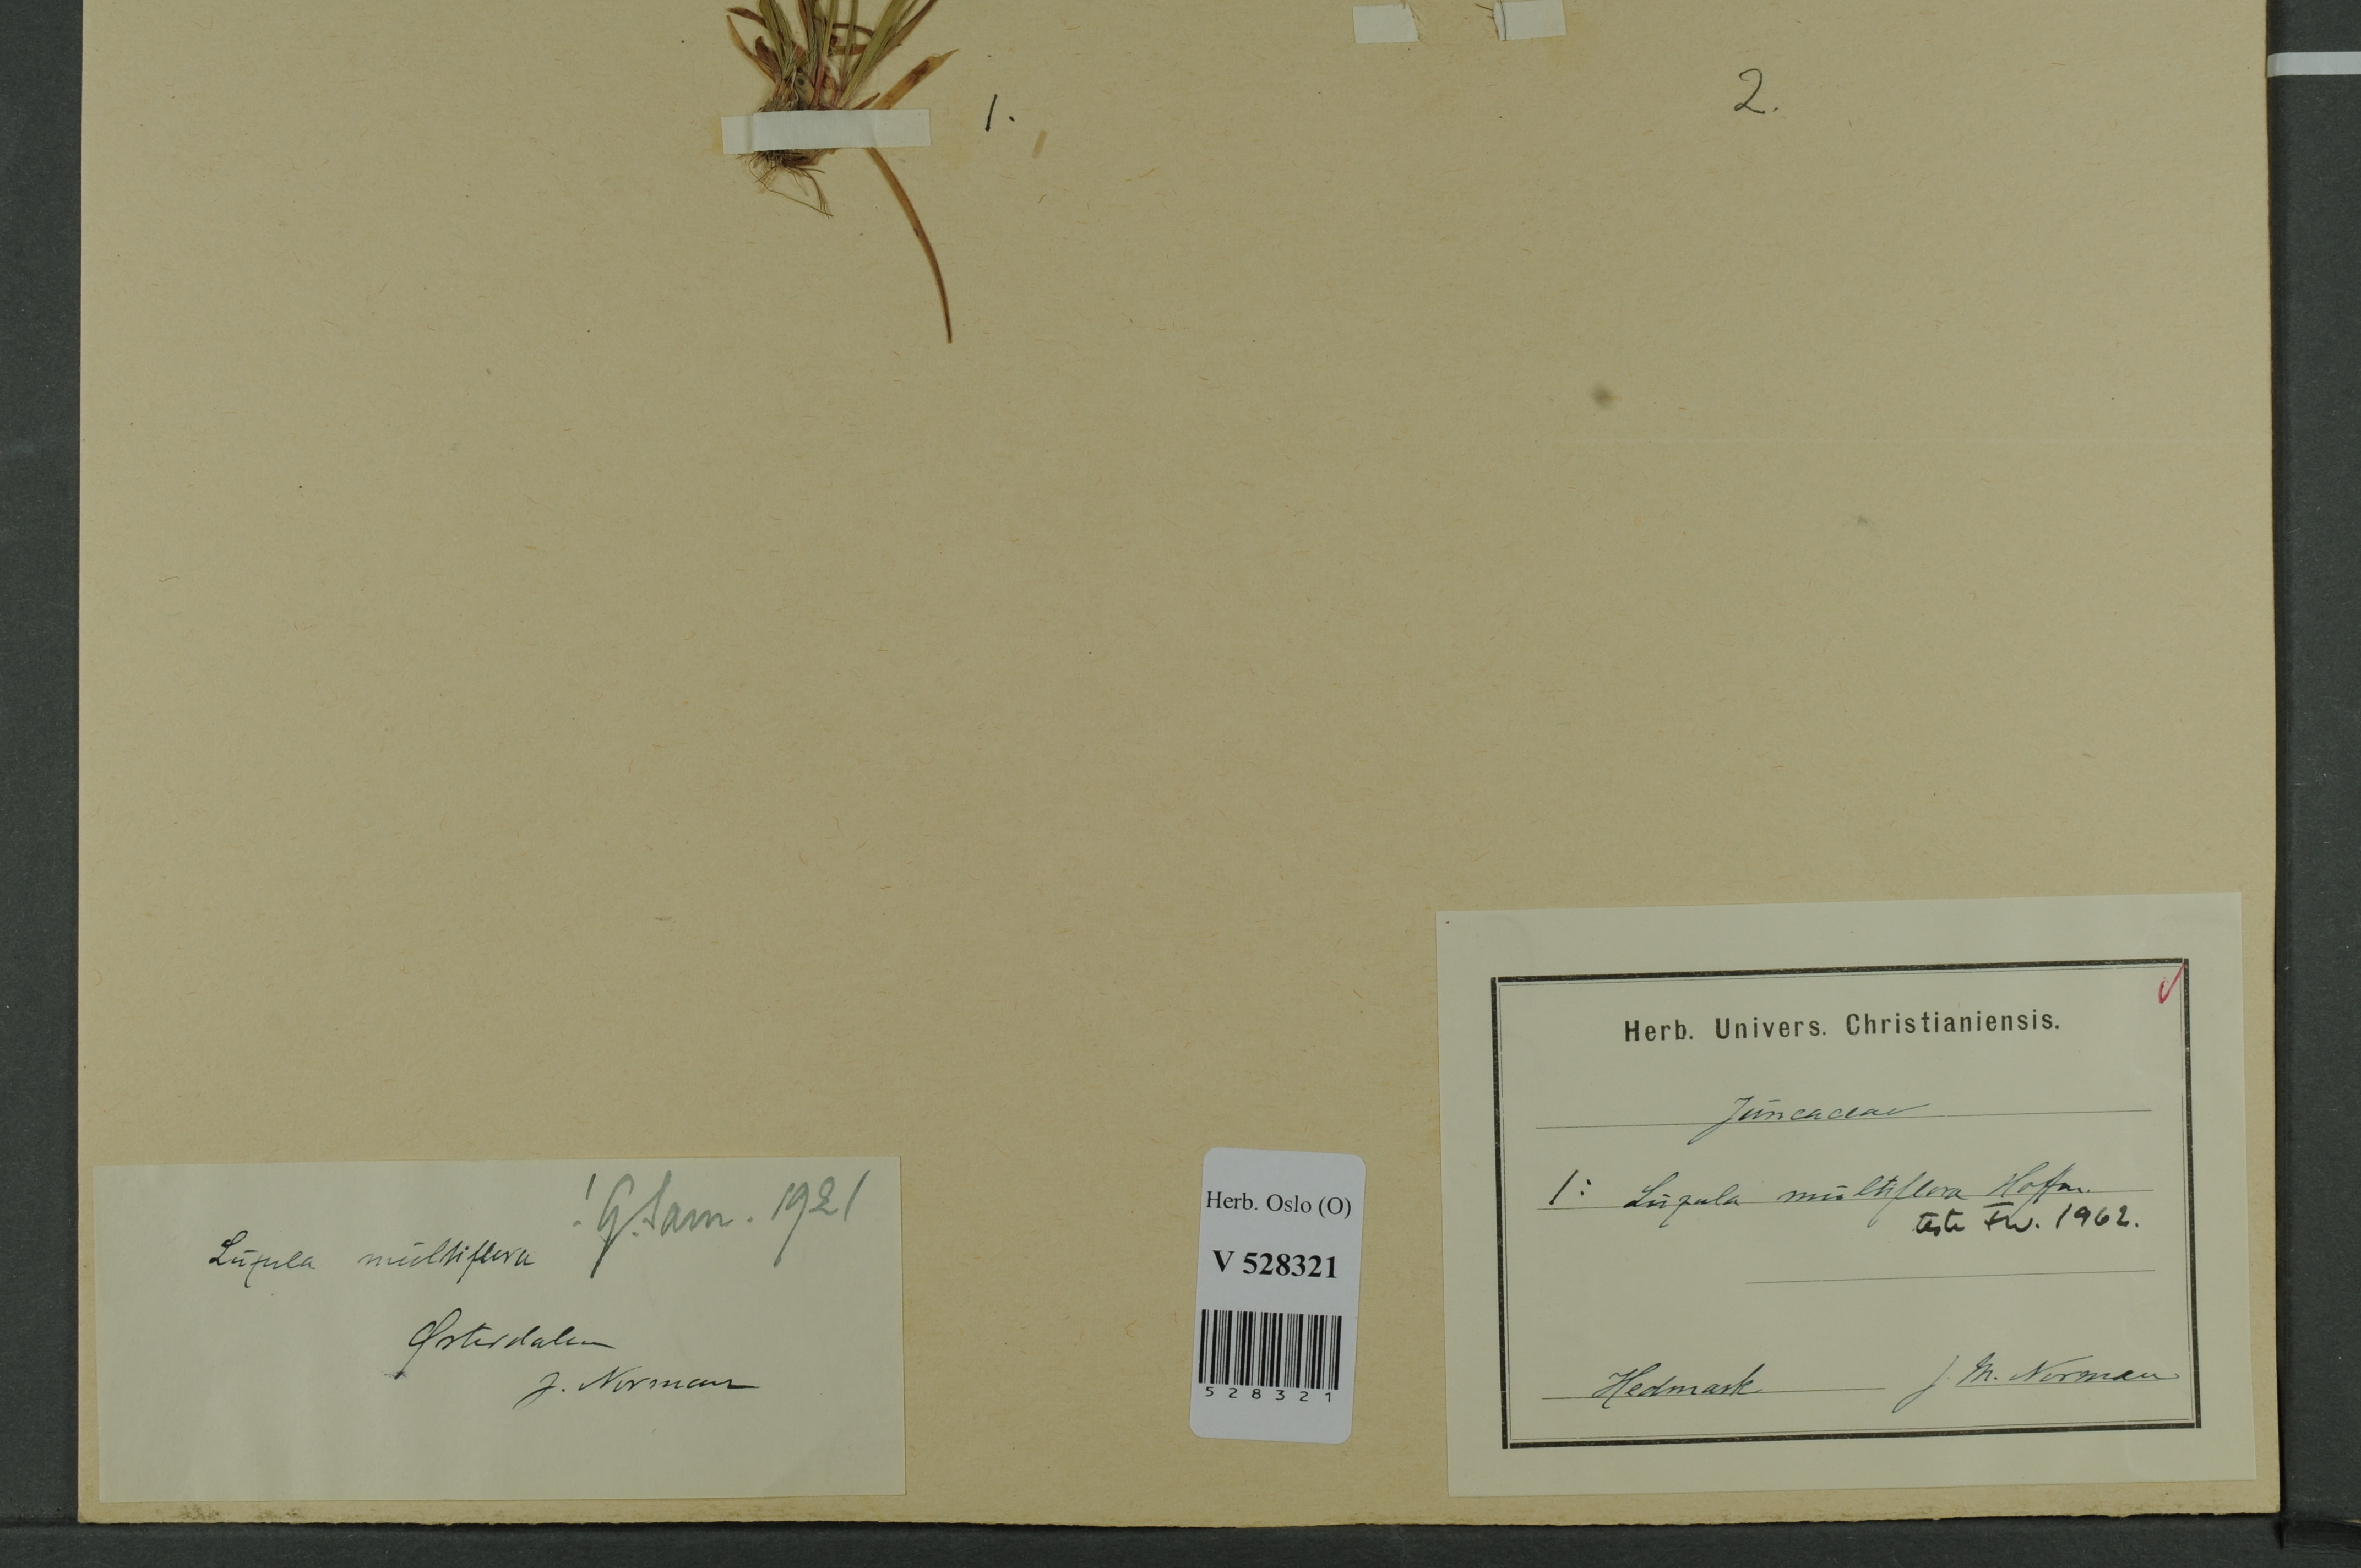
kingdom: Plantae
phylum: Tracheophyta
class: Liliopsida
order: Poales
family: Juncaceae
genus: Luzula
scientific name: Luzula multiflora
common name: Heath wood-rush
